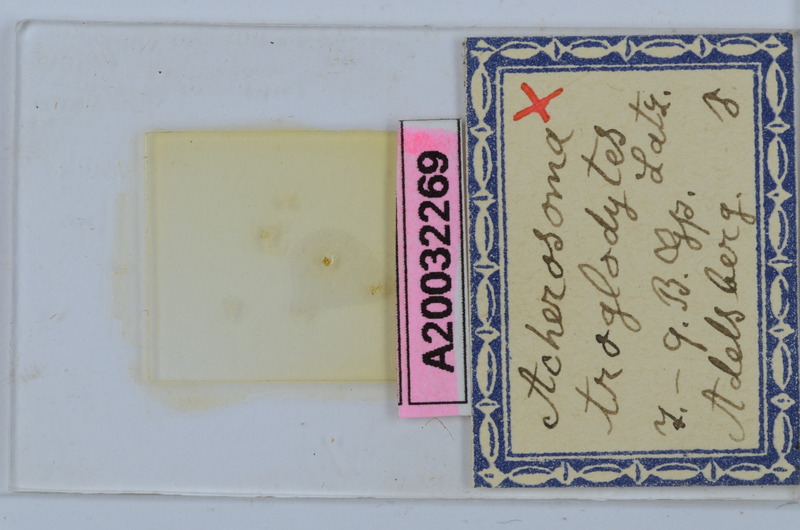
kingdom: Animalia
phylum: Arthropoda
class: Diplopoda
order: Chordeumatida
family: Anthogonidae
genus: Haasia
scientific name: Haasia troglodytes
